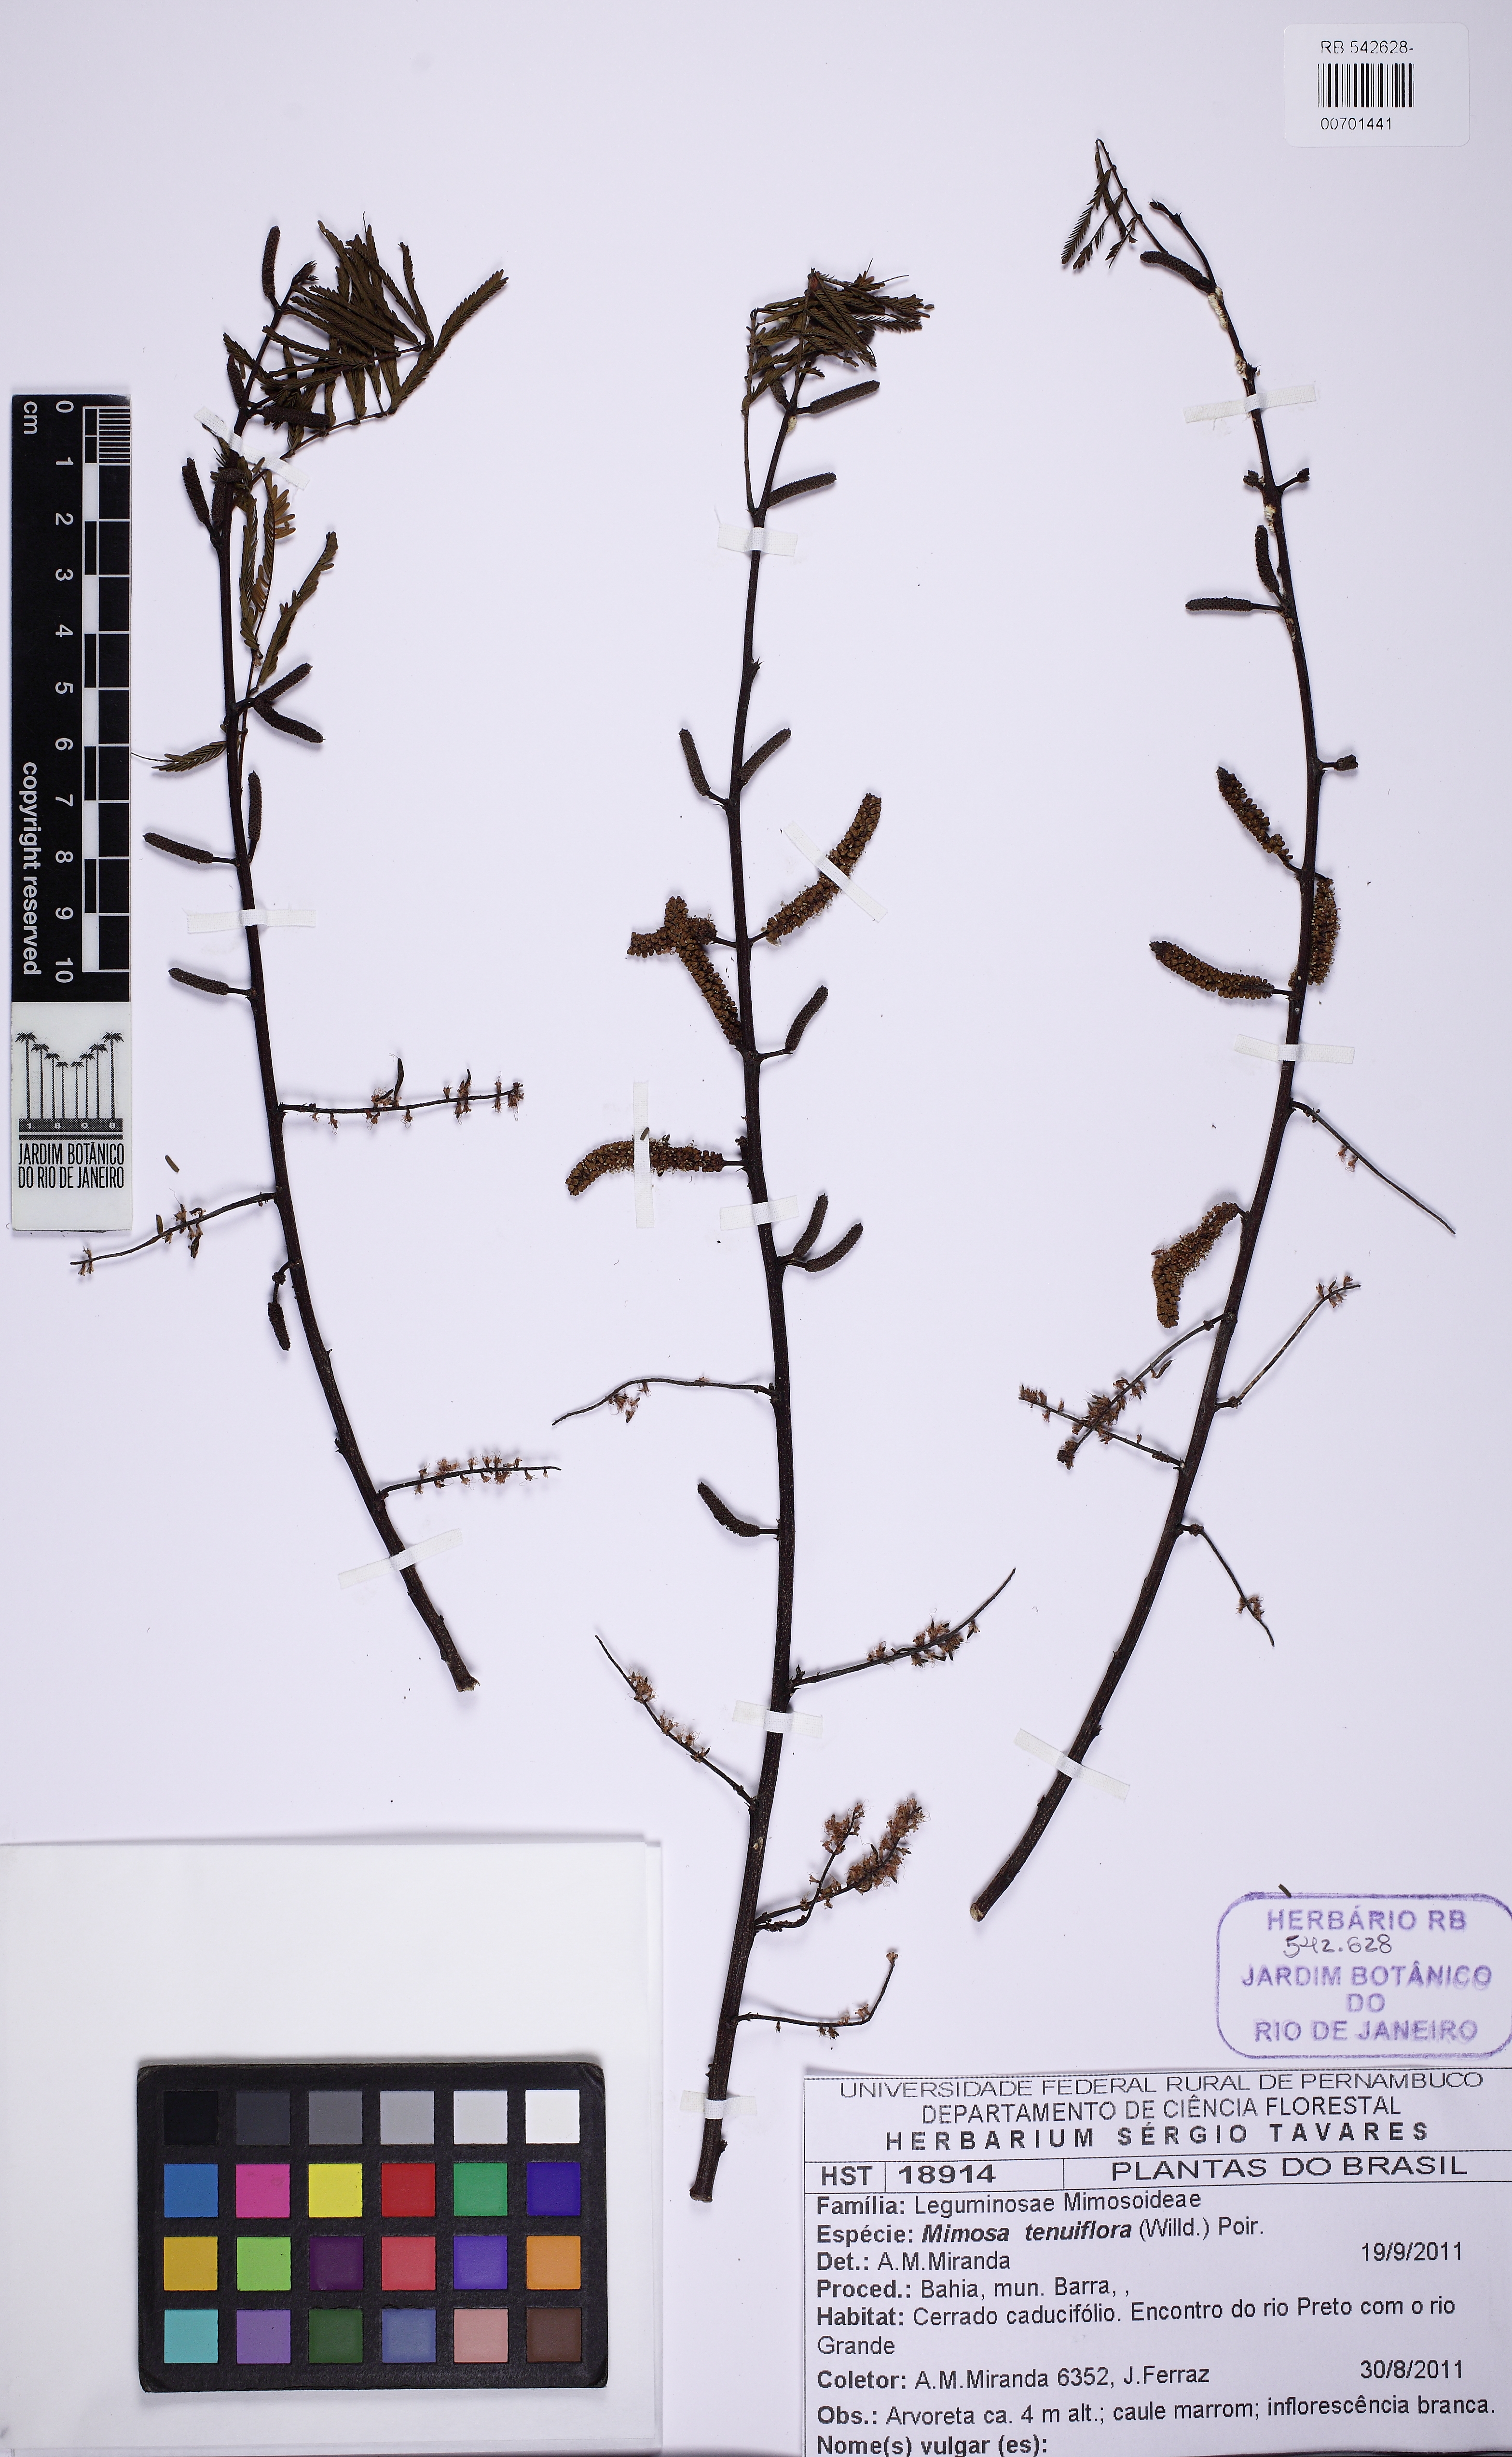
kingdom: Plantae
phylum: Tracheophyta
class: Magnoliopsida
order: Fabales
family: Fabaceae
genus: Mimosa
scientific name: Mimosa tenuiflora
